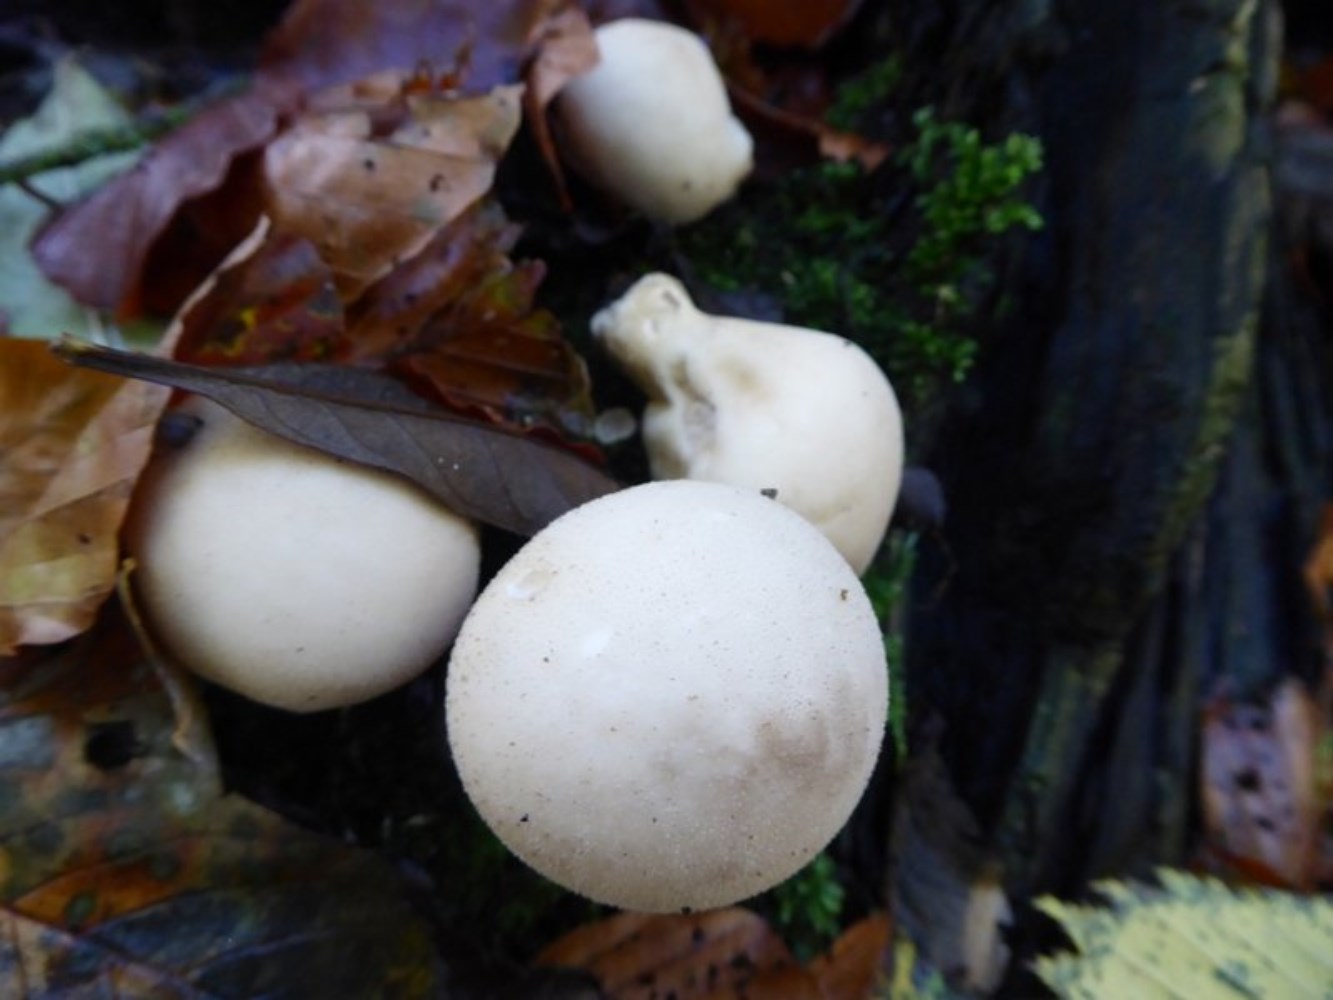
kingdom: Fungi
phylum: Basidiomycota
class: Agaricomycetes
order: Agaricales
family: Lycoperdaceae
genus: Apioperdon
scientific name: Apioperdon pyriforme
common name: pære-støvbold
